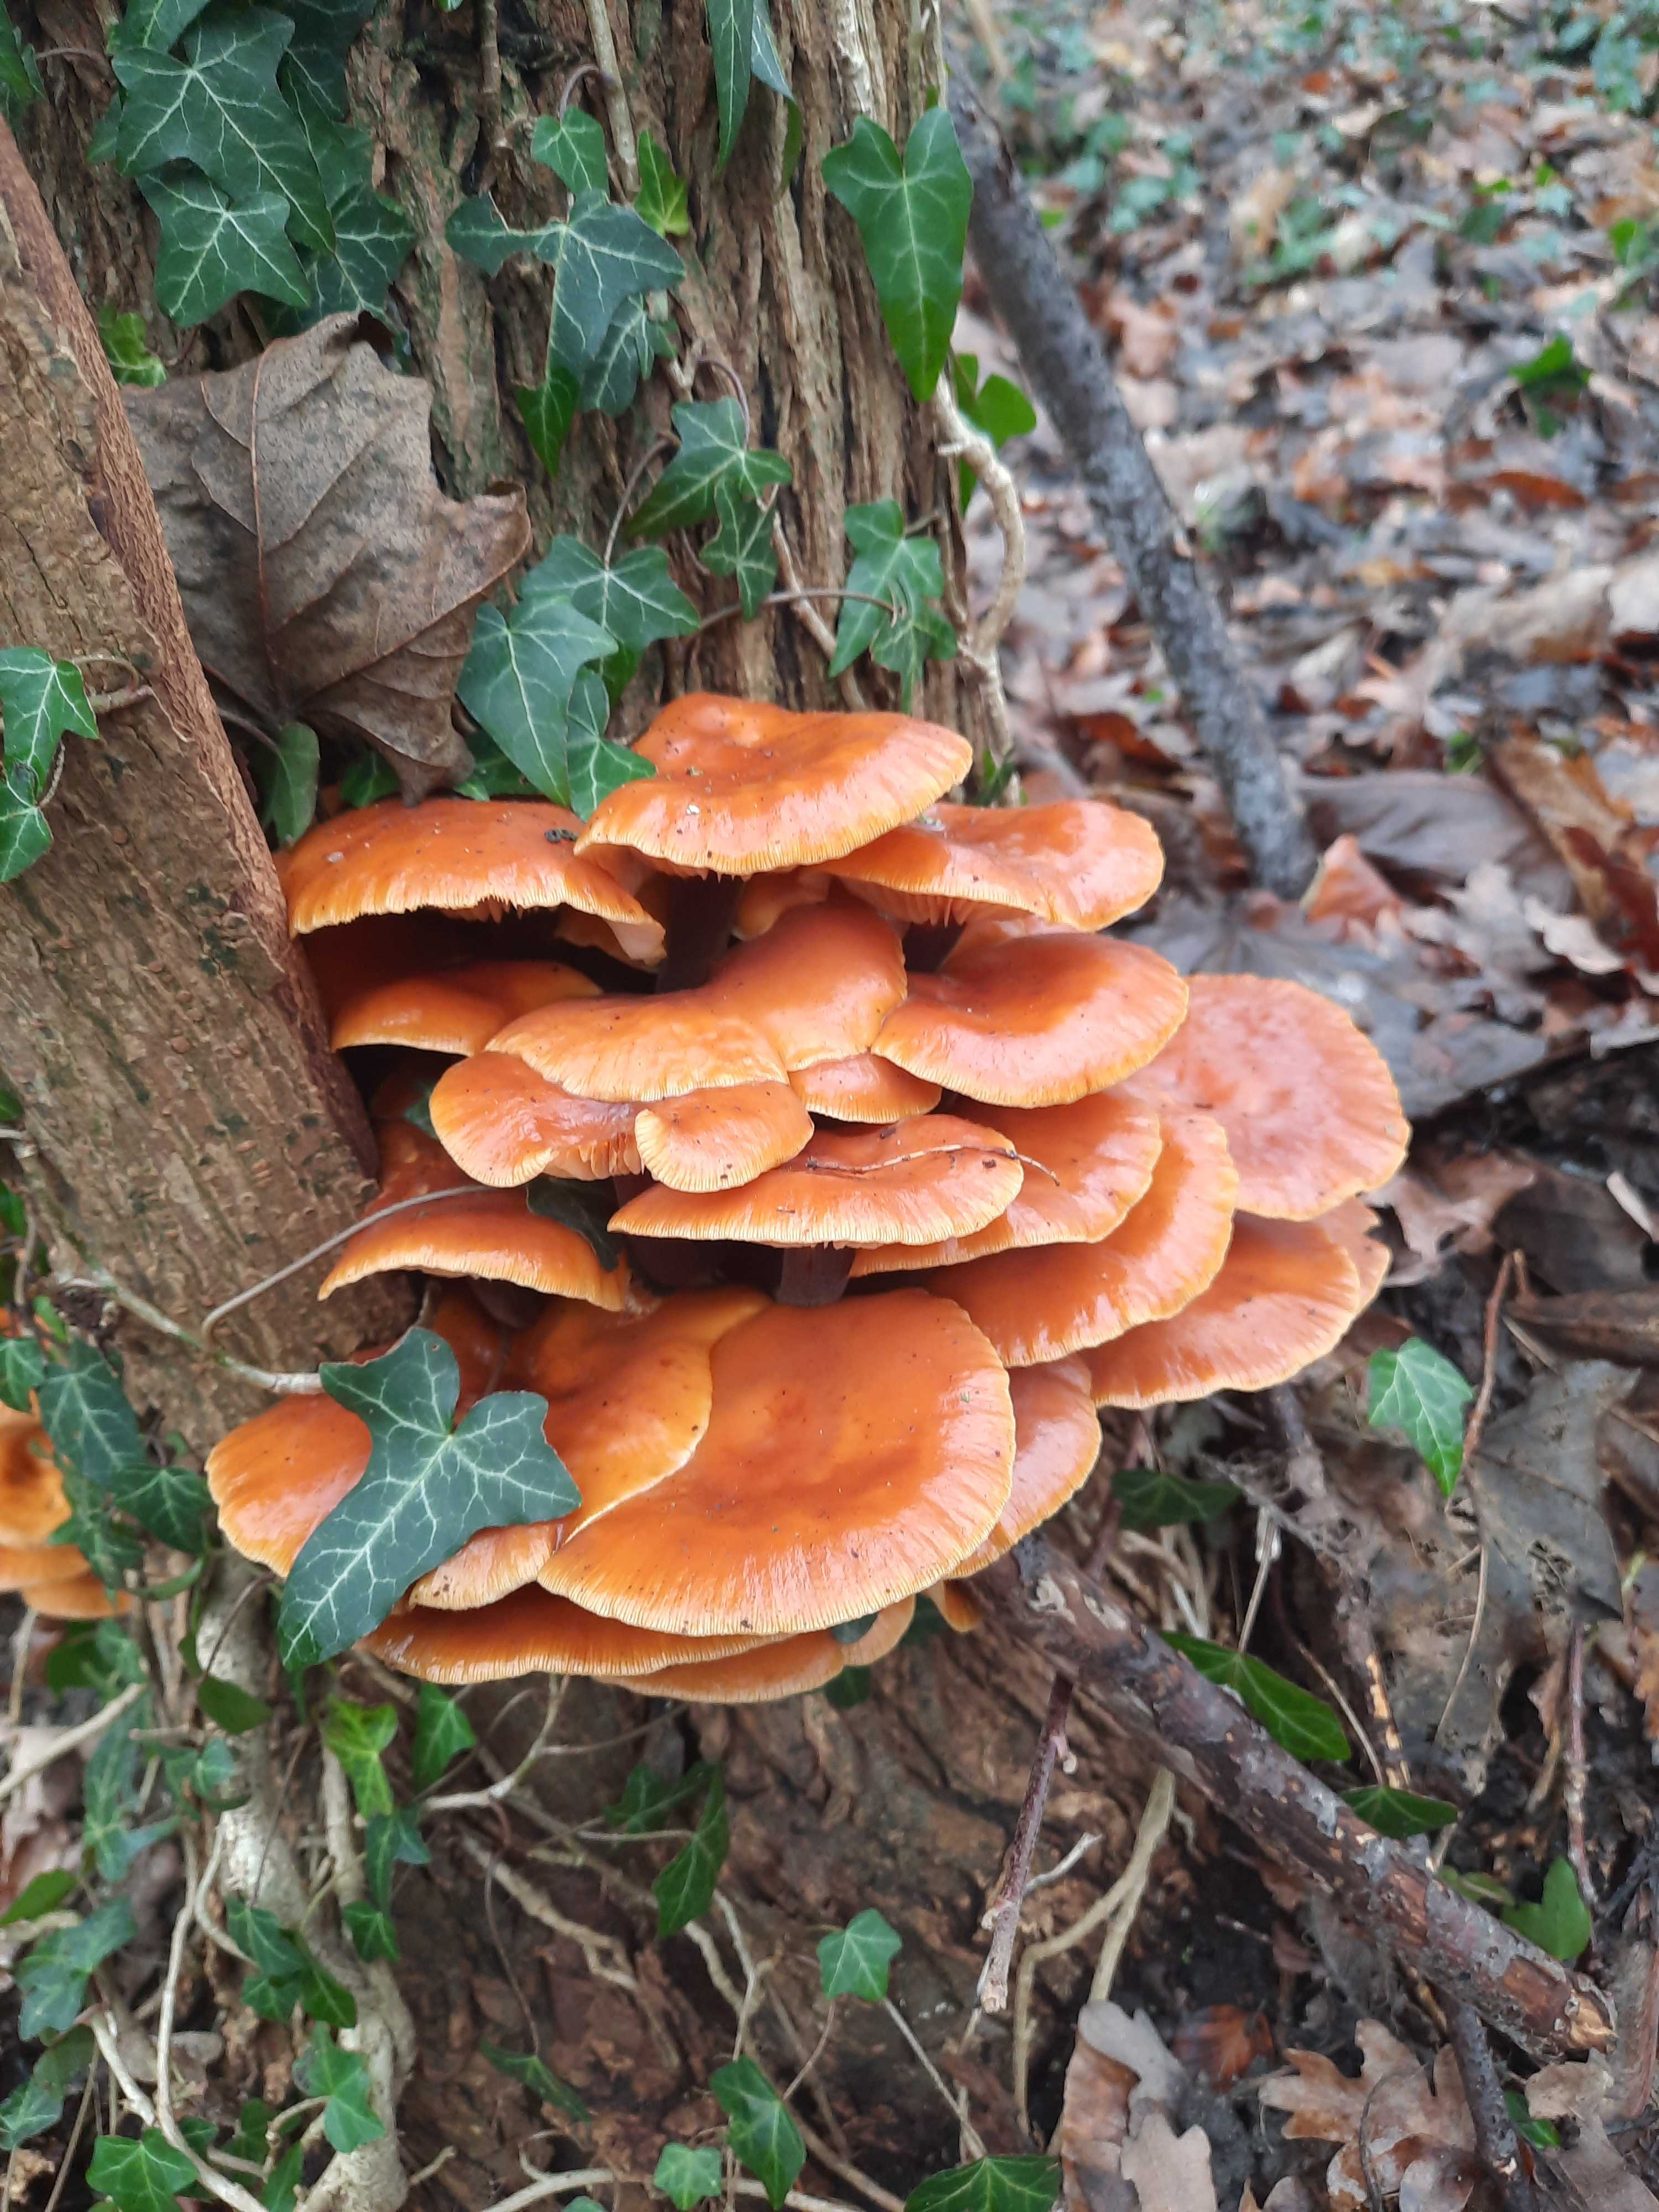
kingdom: Fungi
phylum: Basidiomycota
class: Agaricomycetes
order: Agaricales
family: Physalacriaceae
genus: Flammulina
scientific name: Flammulina
